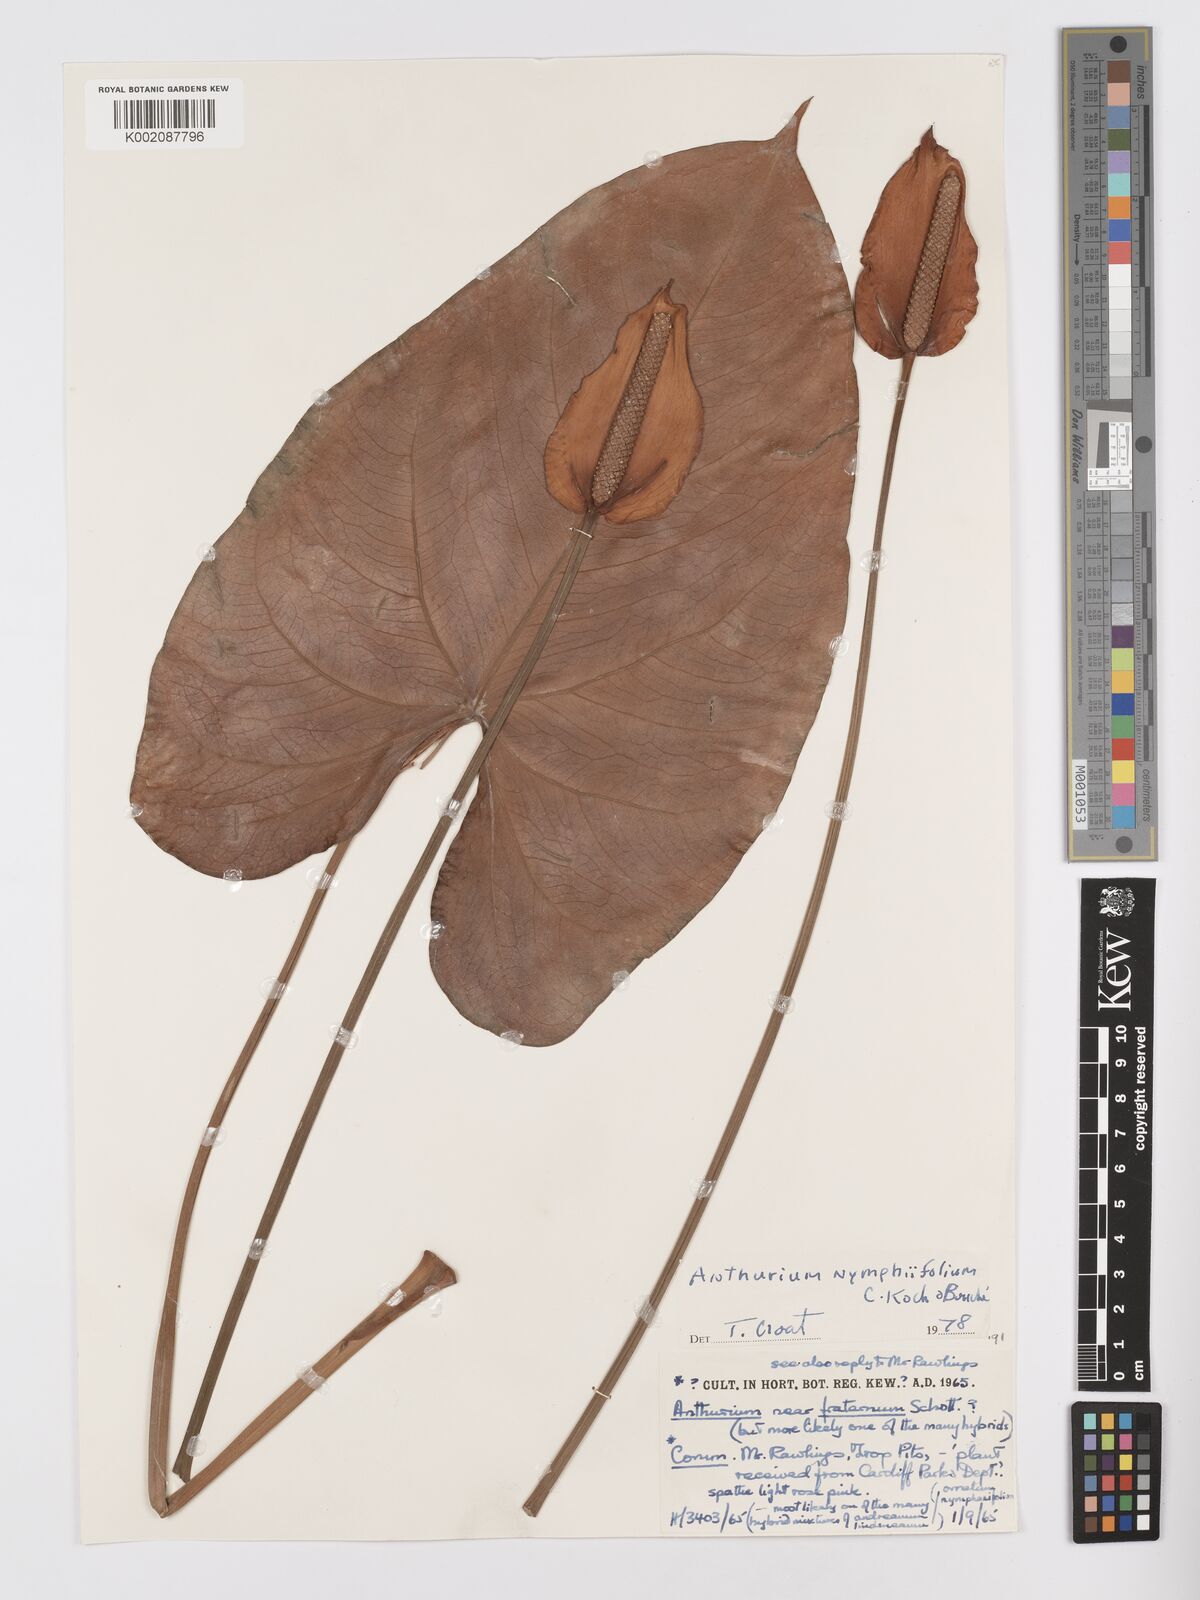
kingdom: Plantae
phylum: Tracheophyta
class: Liliopsida
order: Alismatales
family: Araceae
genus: Anthurium
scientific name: Anthurium nymphaeifolium
